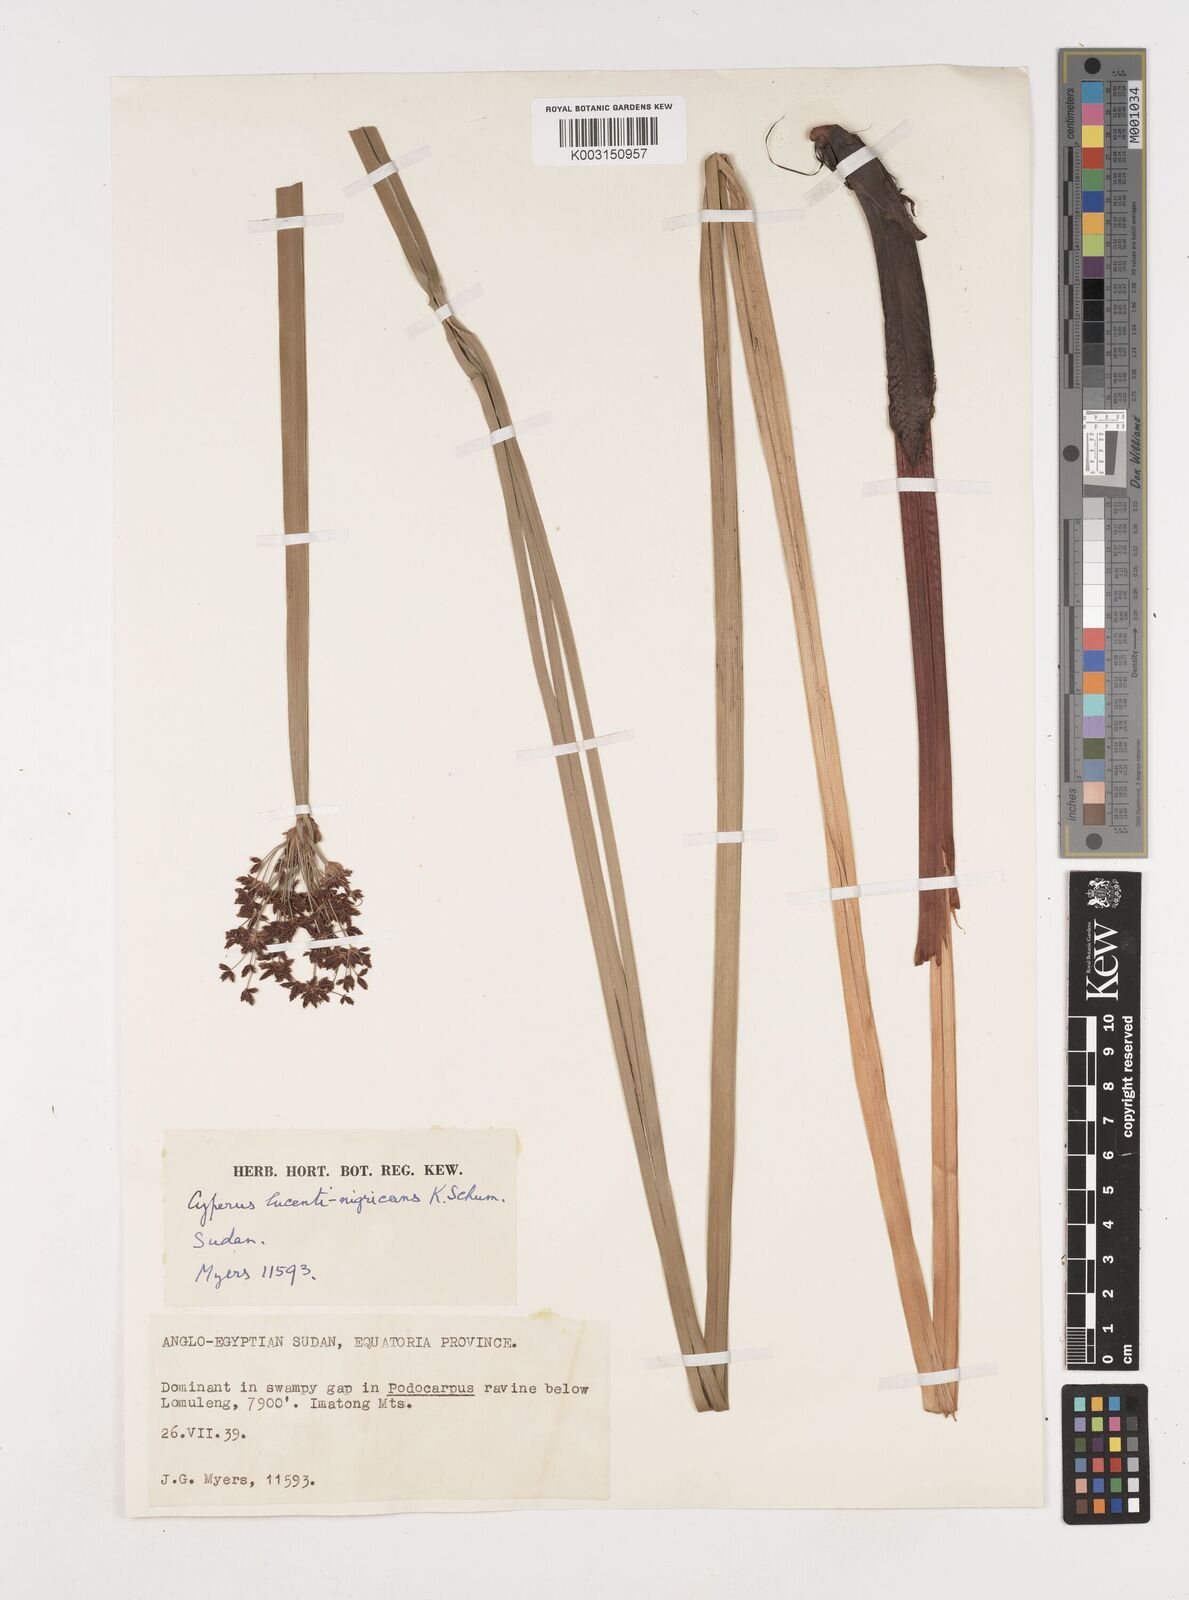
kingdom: Plantae
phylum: Tracheophyta
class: Liliopsida
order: Poales
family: Cyperaceae
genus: Cyperus
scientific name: Cyperus platycaulis
